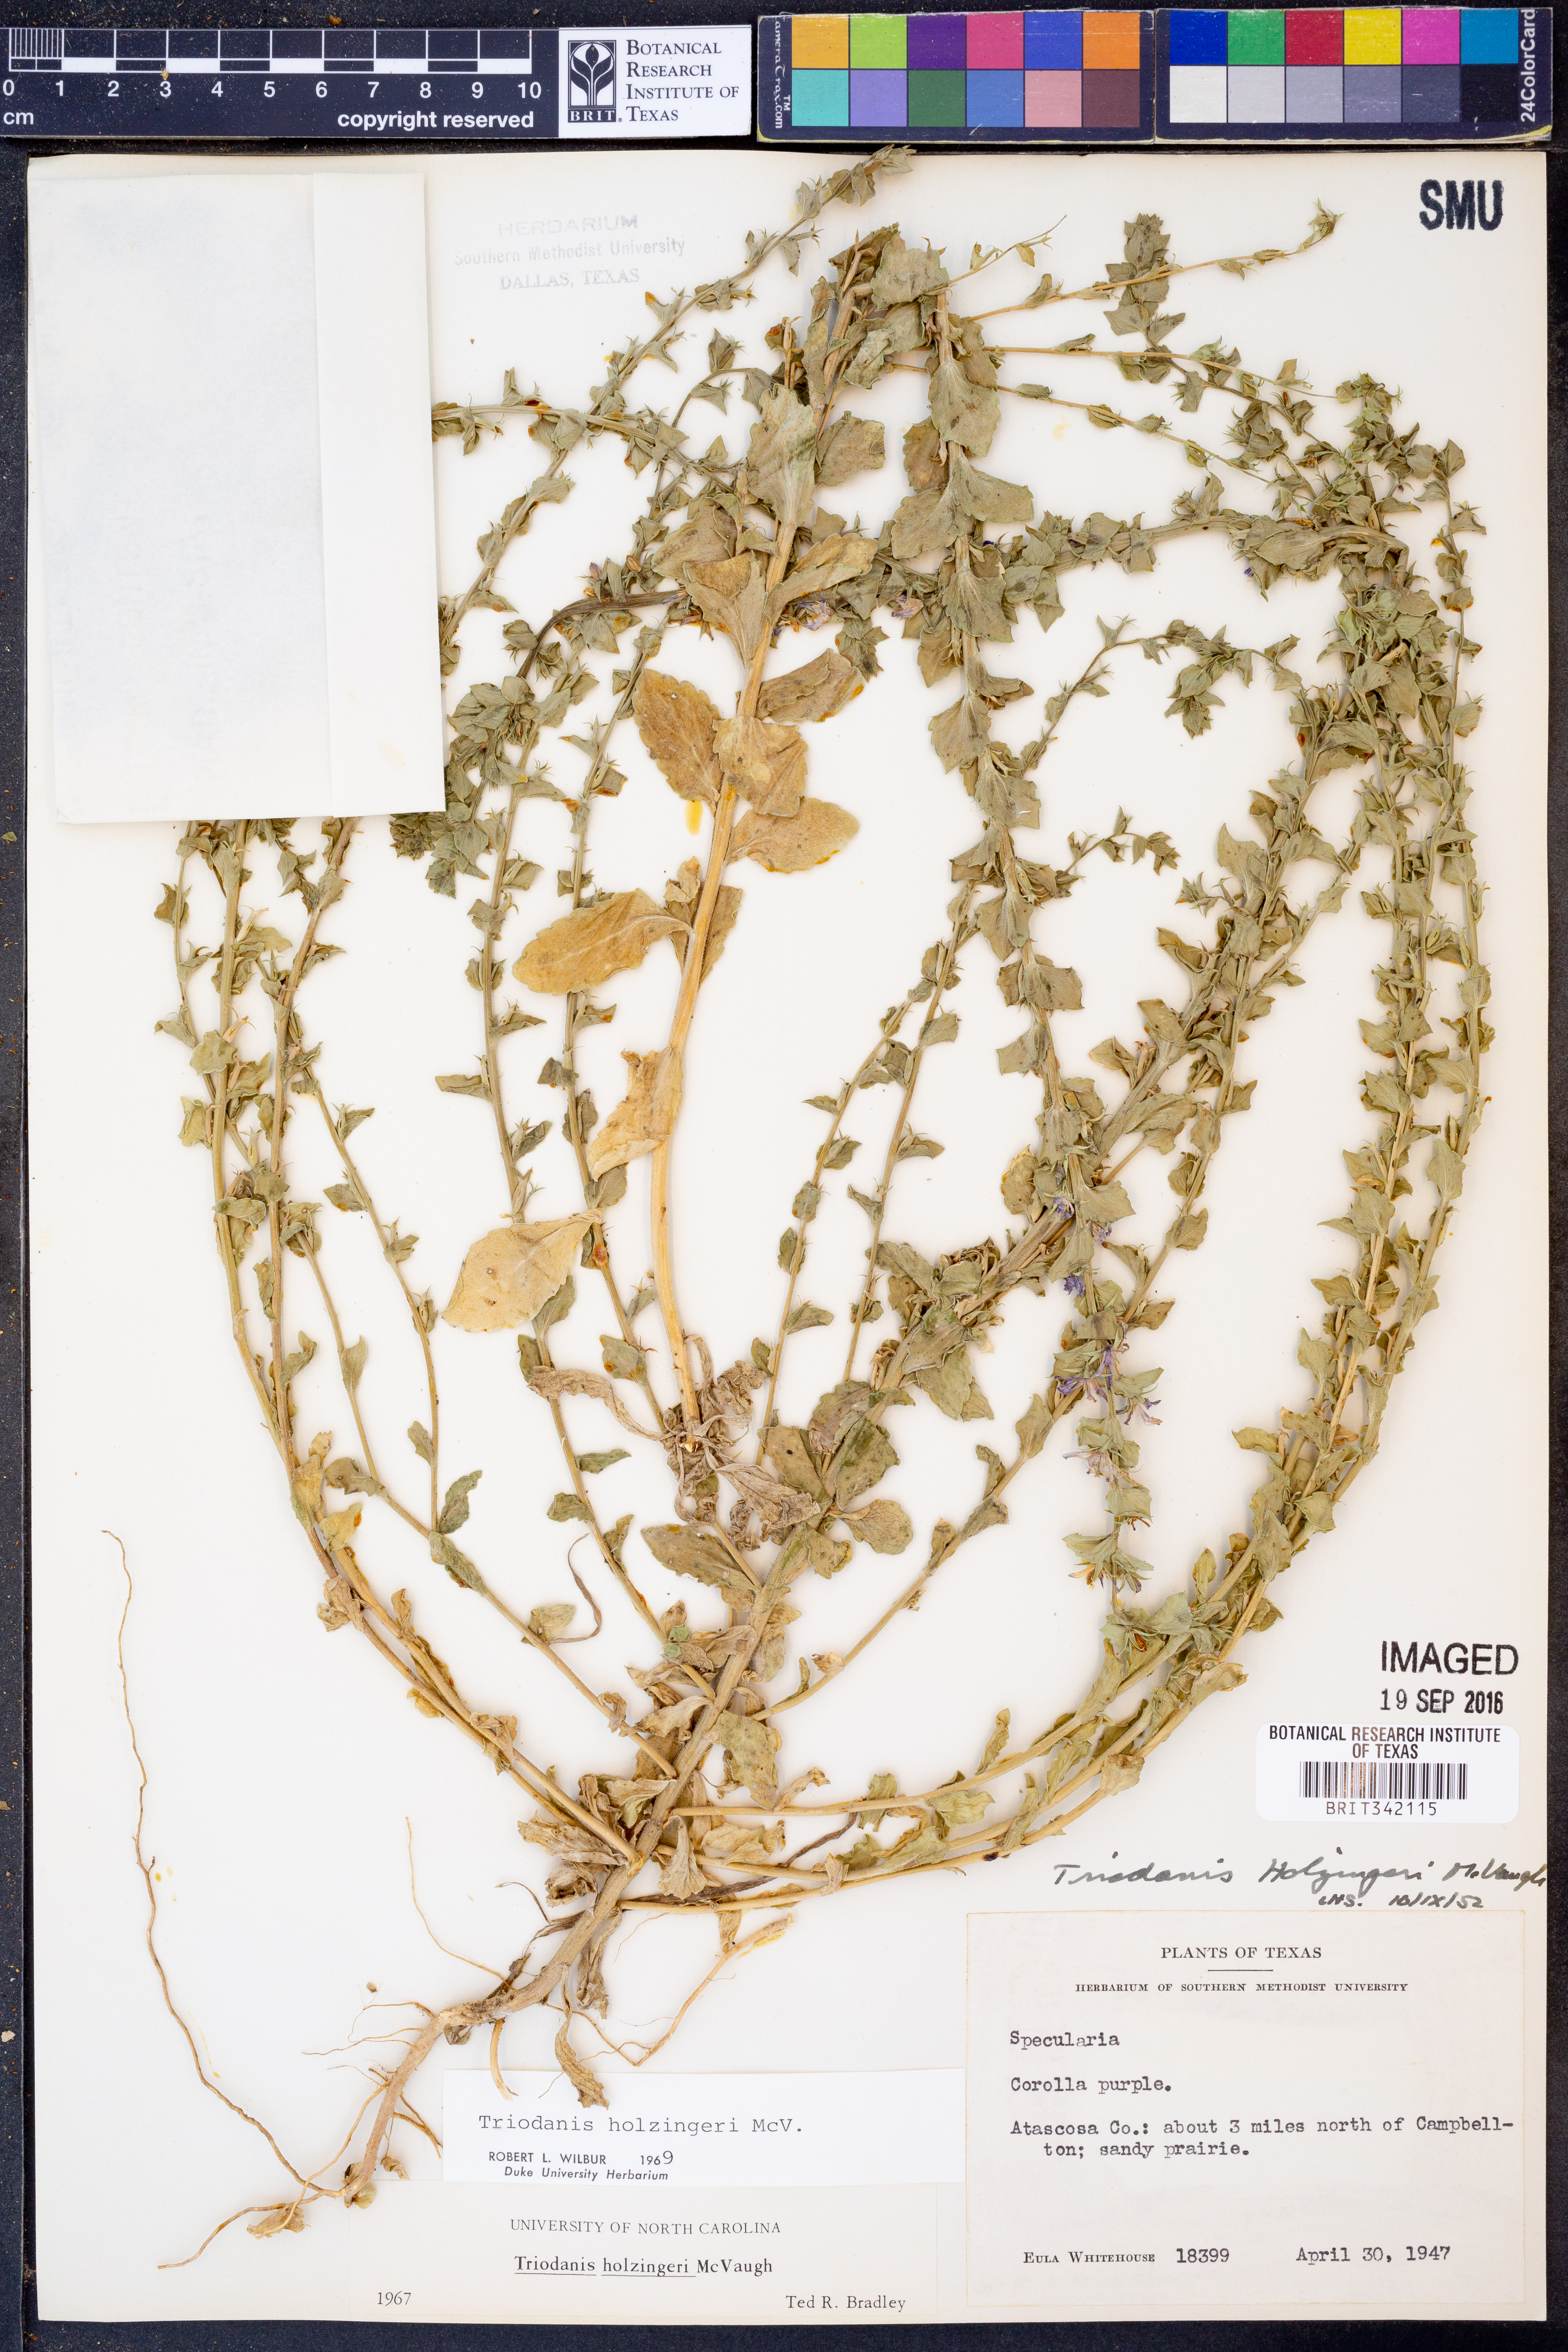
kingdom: Plantae
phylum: Tracheophyta
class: Magnoliopsida
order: Asterales
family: Campanulaceae
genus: Triodanis
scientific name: Triodanis holzingeri
